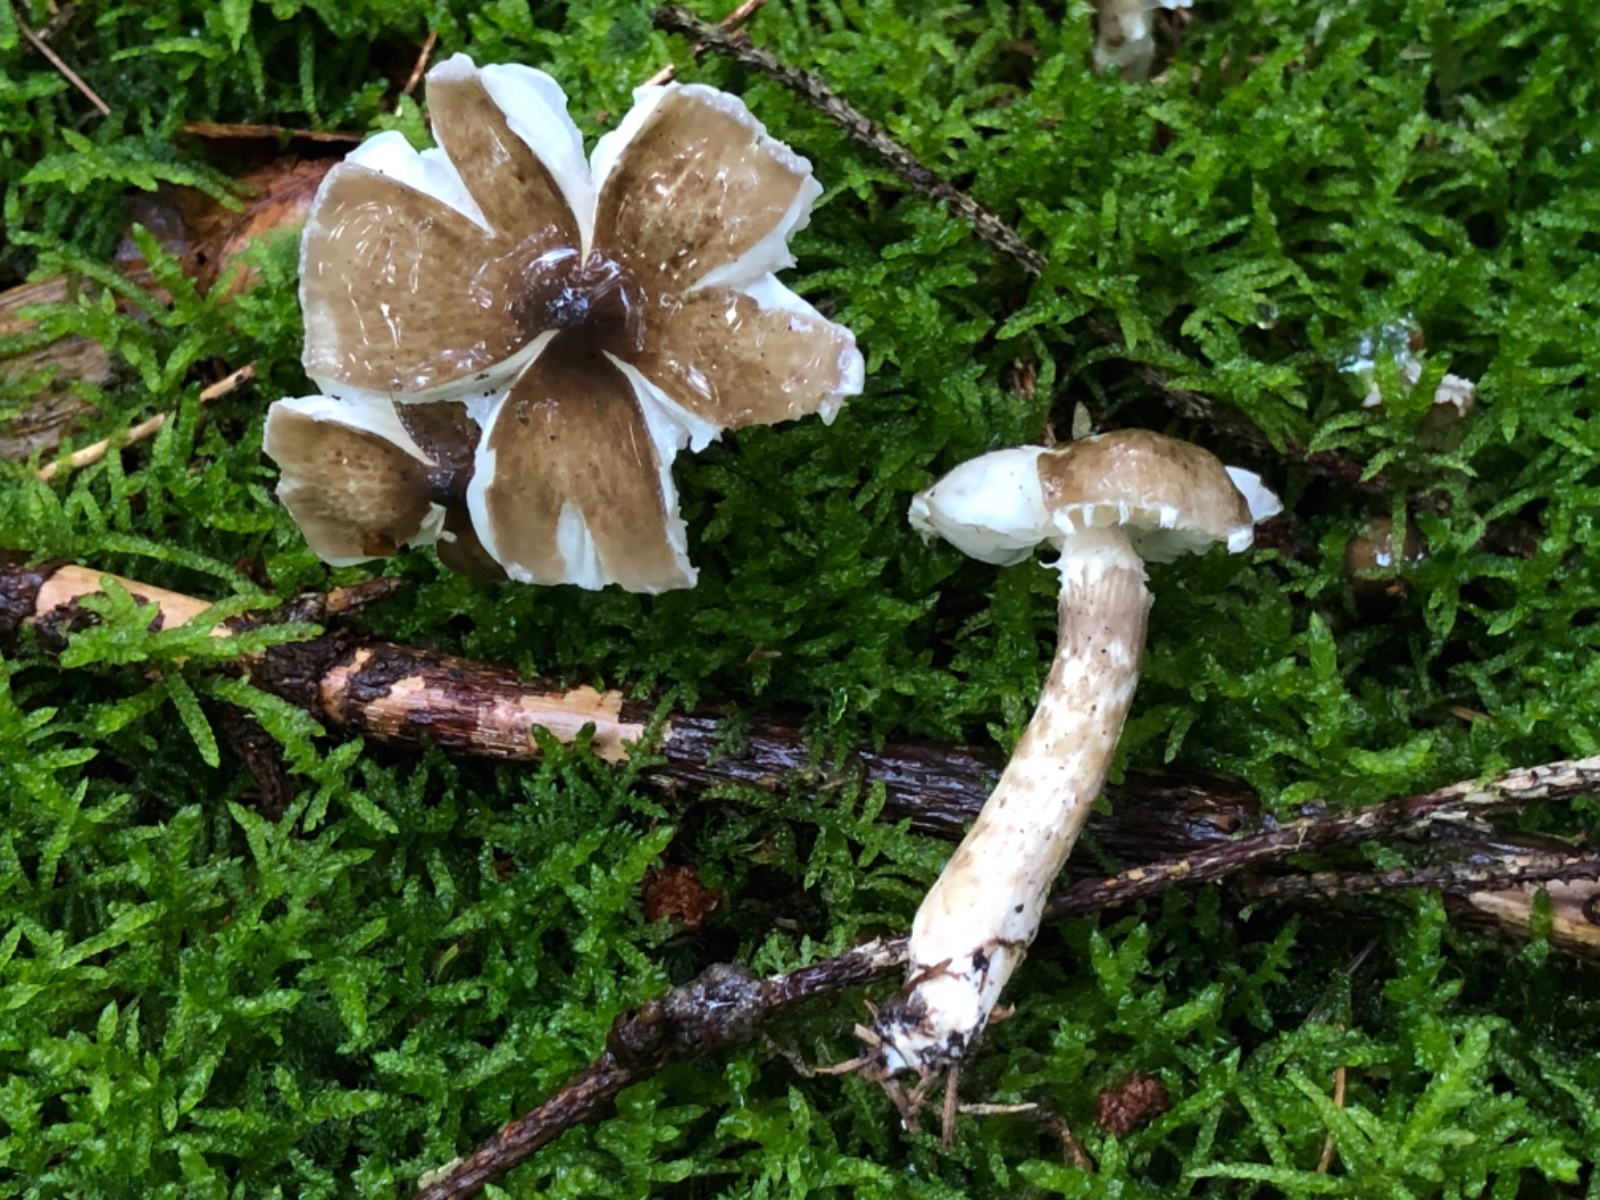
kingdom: Fungi
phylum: Basidiomycota
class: Agaricomycetes
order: Agaricales
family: Hygrophoraceae
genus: Hygrophorus
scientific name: Hygrophorus olivaceoalbus
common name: hvidbrun sneglehat
